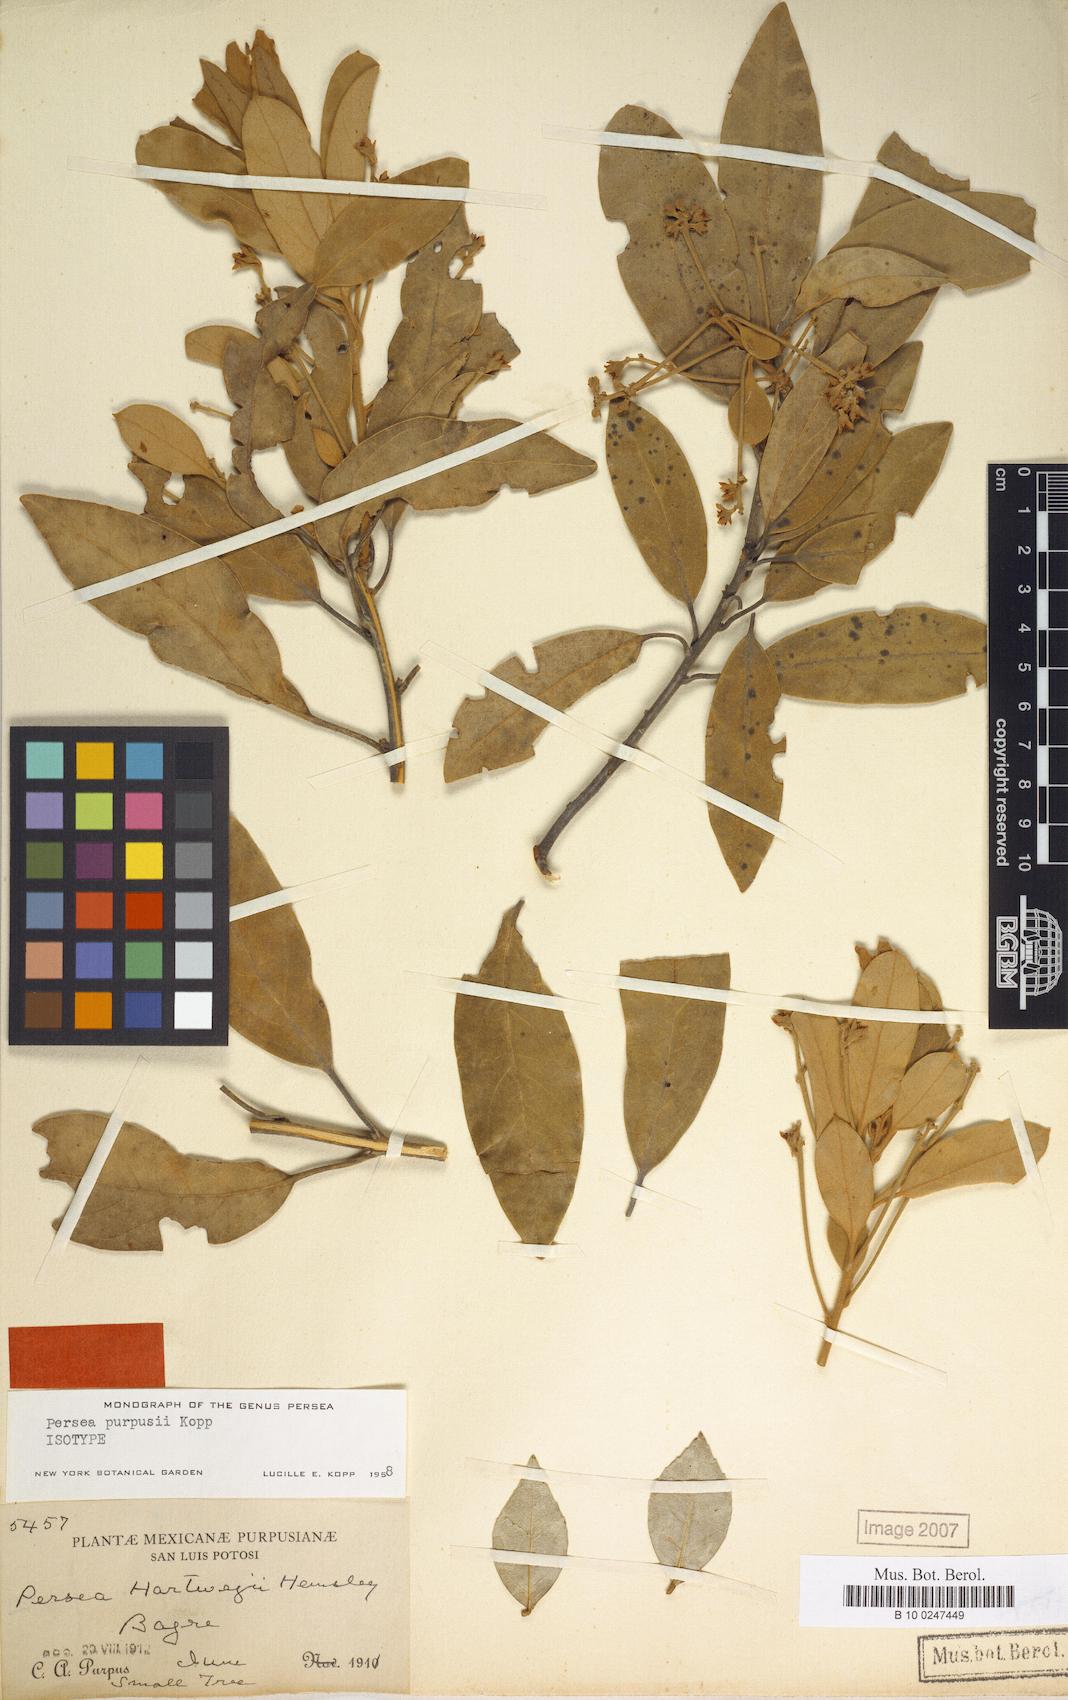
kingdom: Plantae
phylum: Tracheophyta
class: Magnoliopsida
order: Laurales
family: Lauraceae
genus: Persea
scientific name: Persea purpusii
